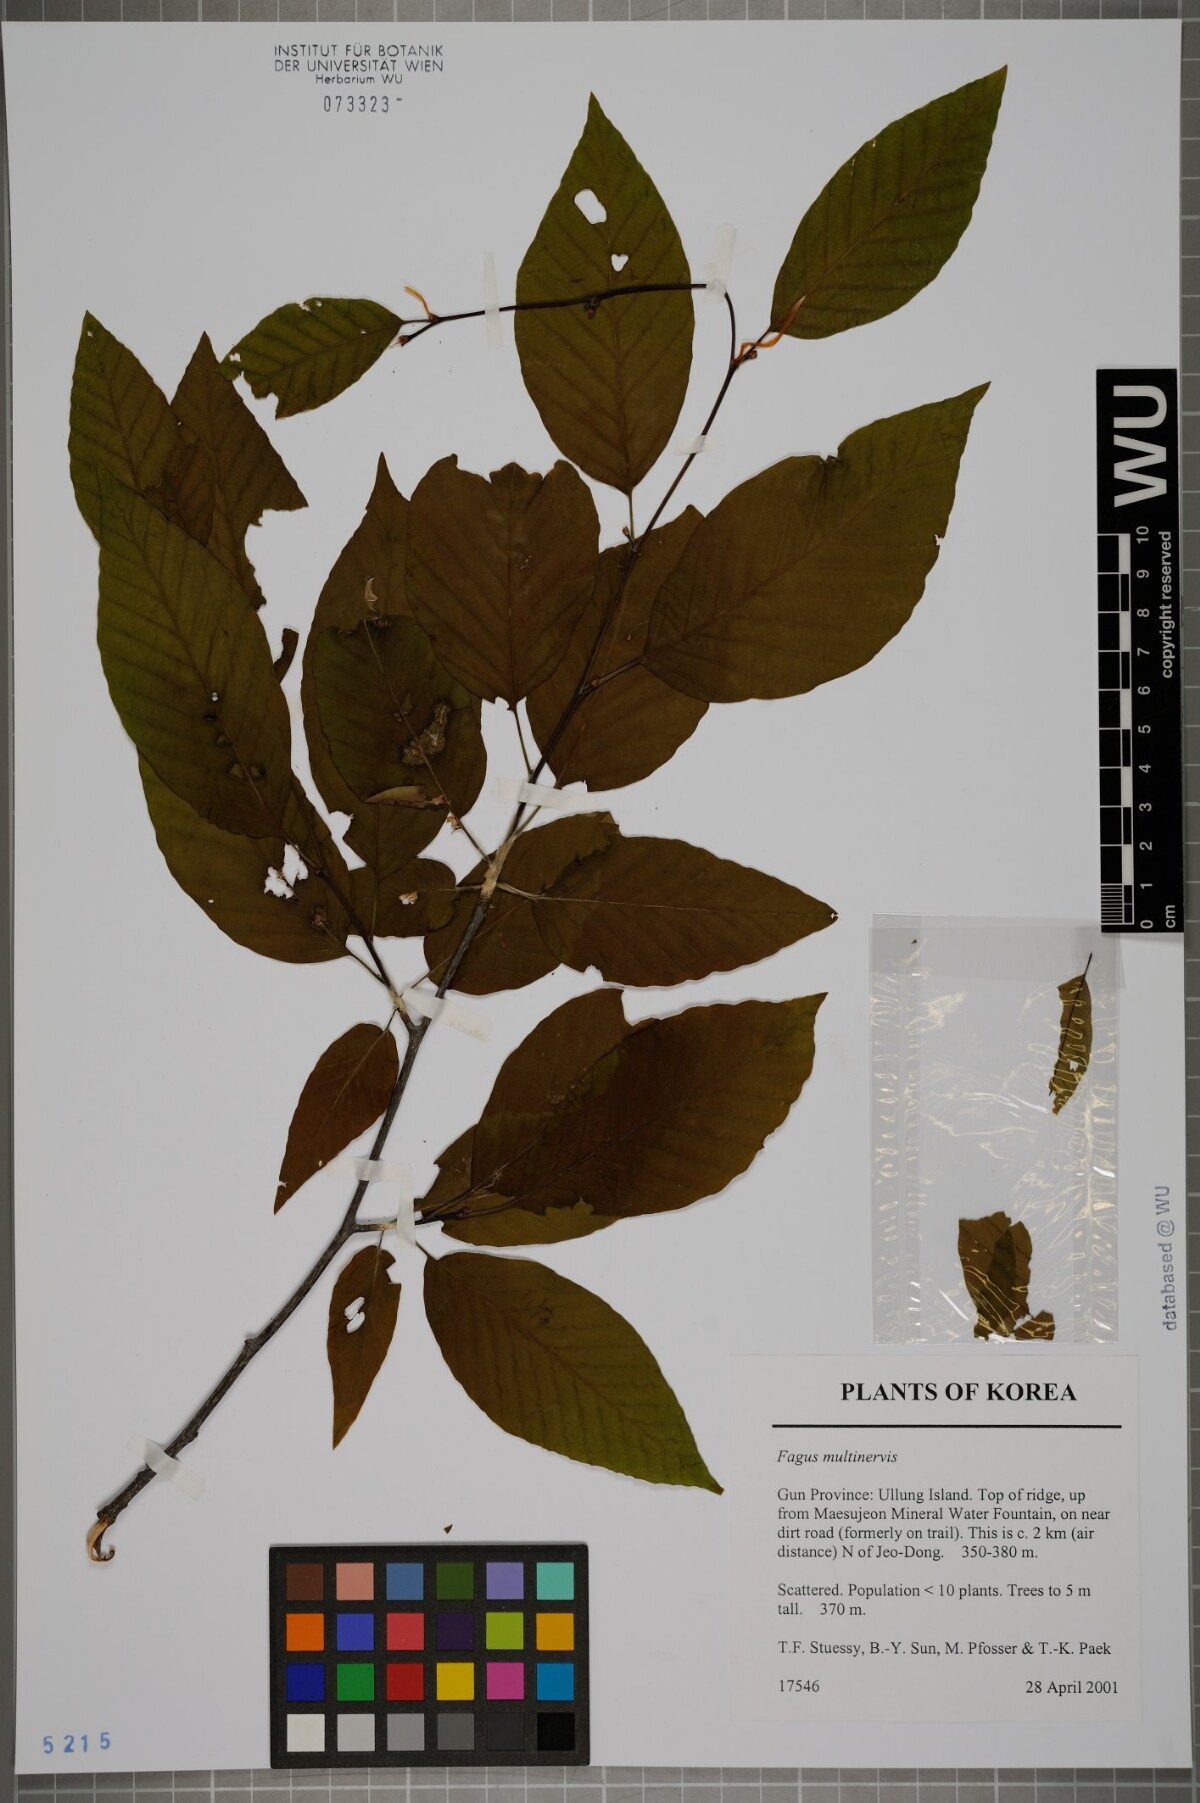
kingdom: Plantae
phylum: Tracheophyta
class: Magnoliopsida
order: Fagales
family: Fagaceae
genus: Fagus
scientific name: Fagus multinervis
